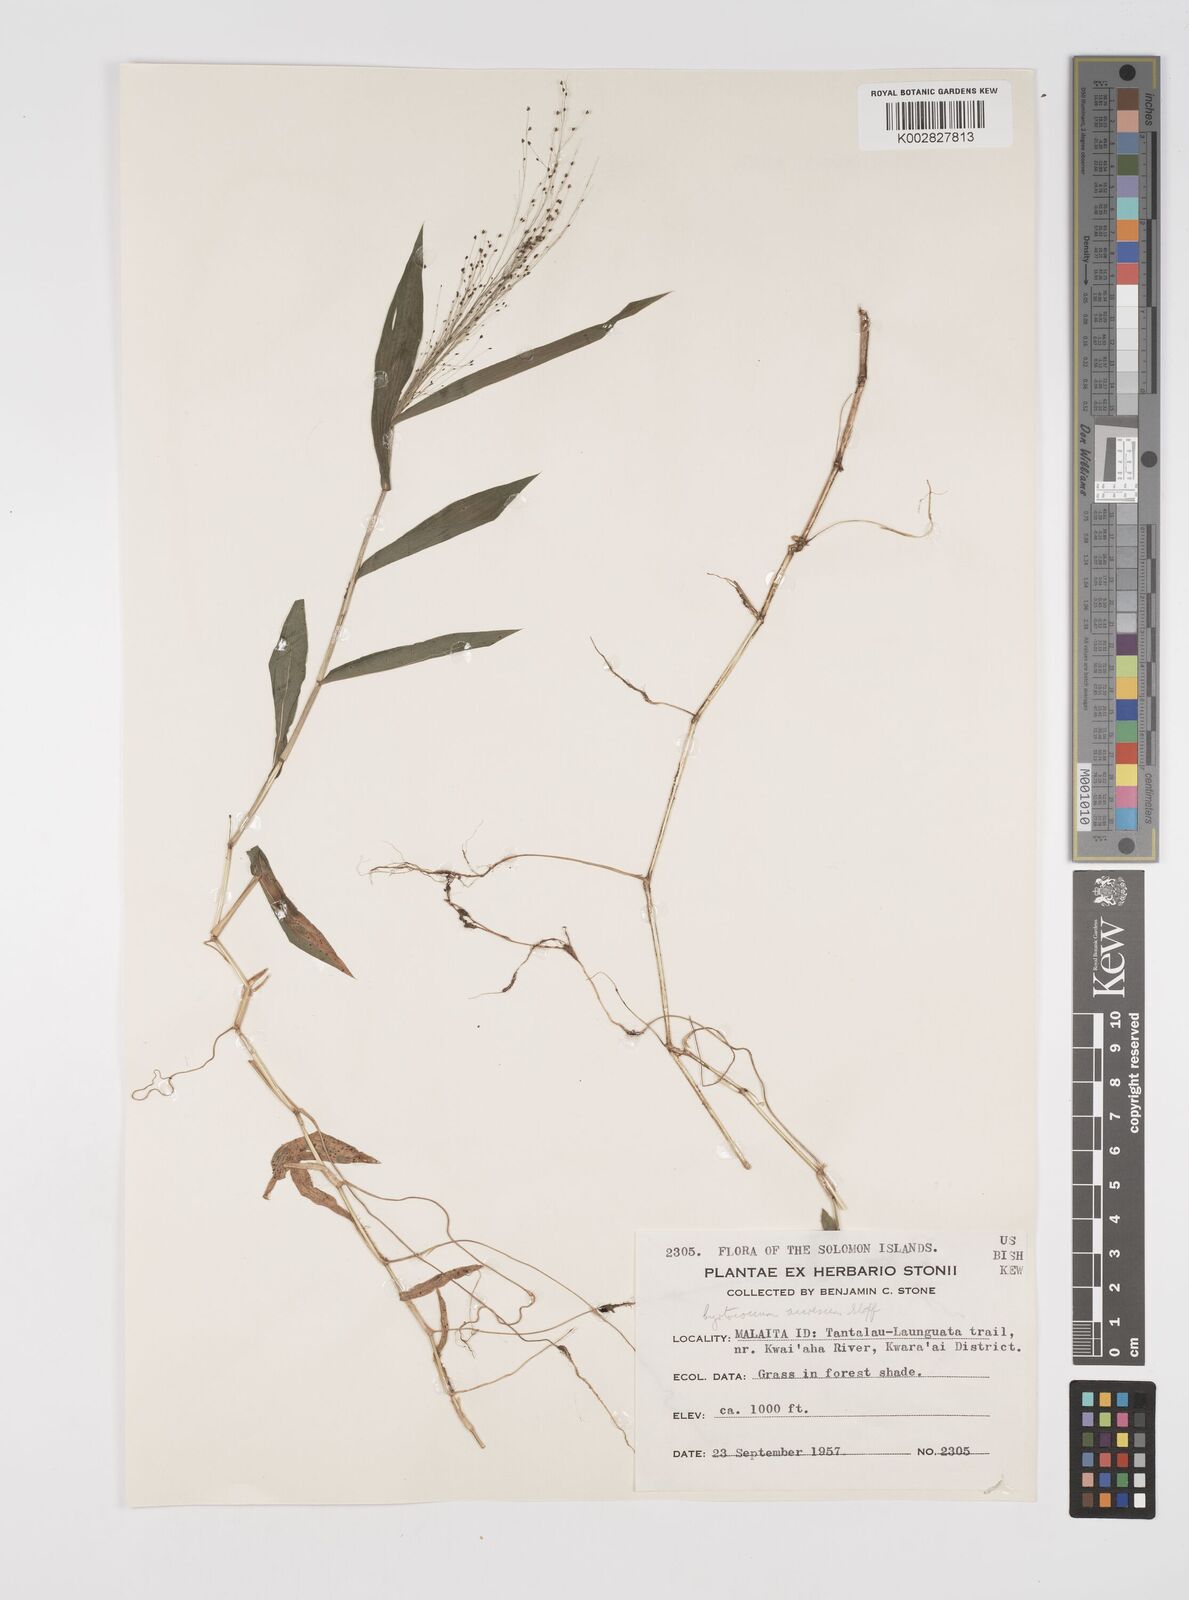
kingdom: Plantae
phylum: Tracheophyta
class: Liliopsida
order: Poales
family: Poaceae
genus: Cyrtococcum
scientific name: Cyrtococcum accrescens
